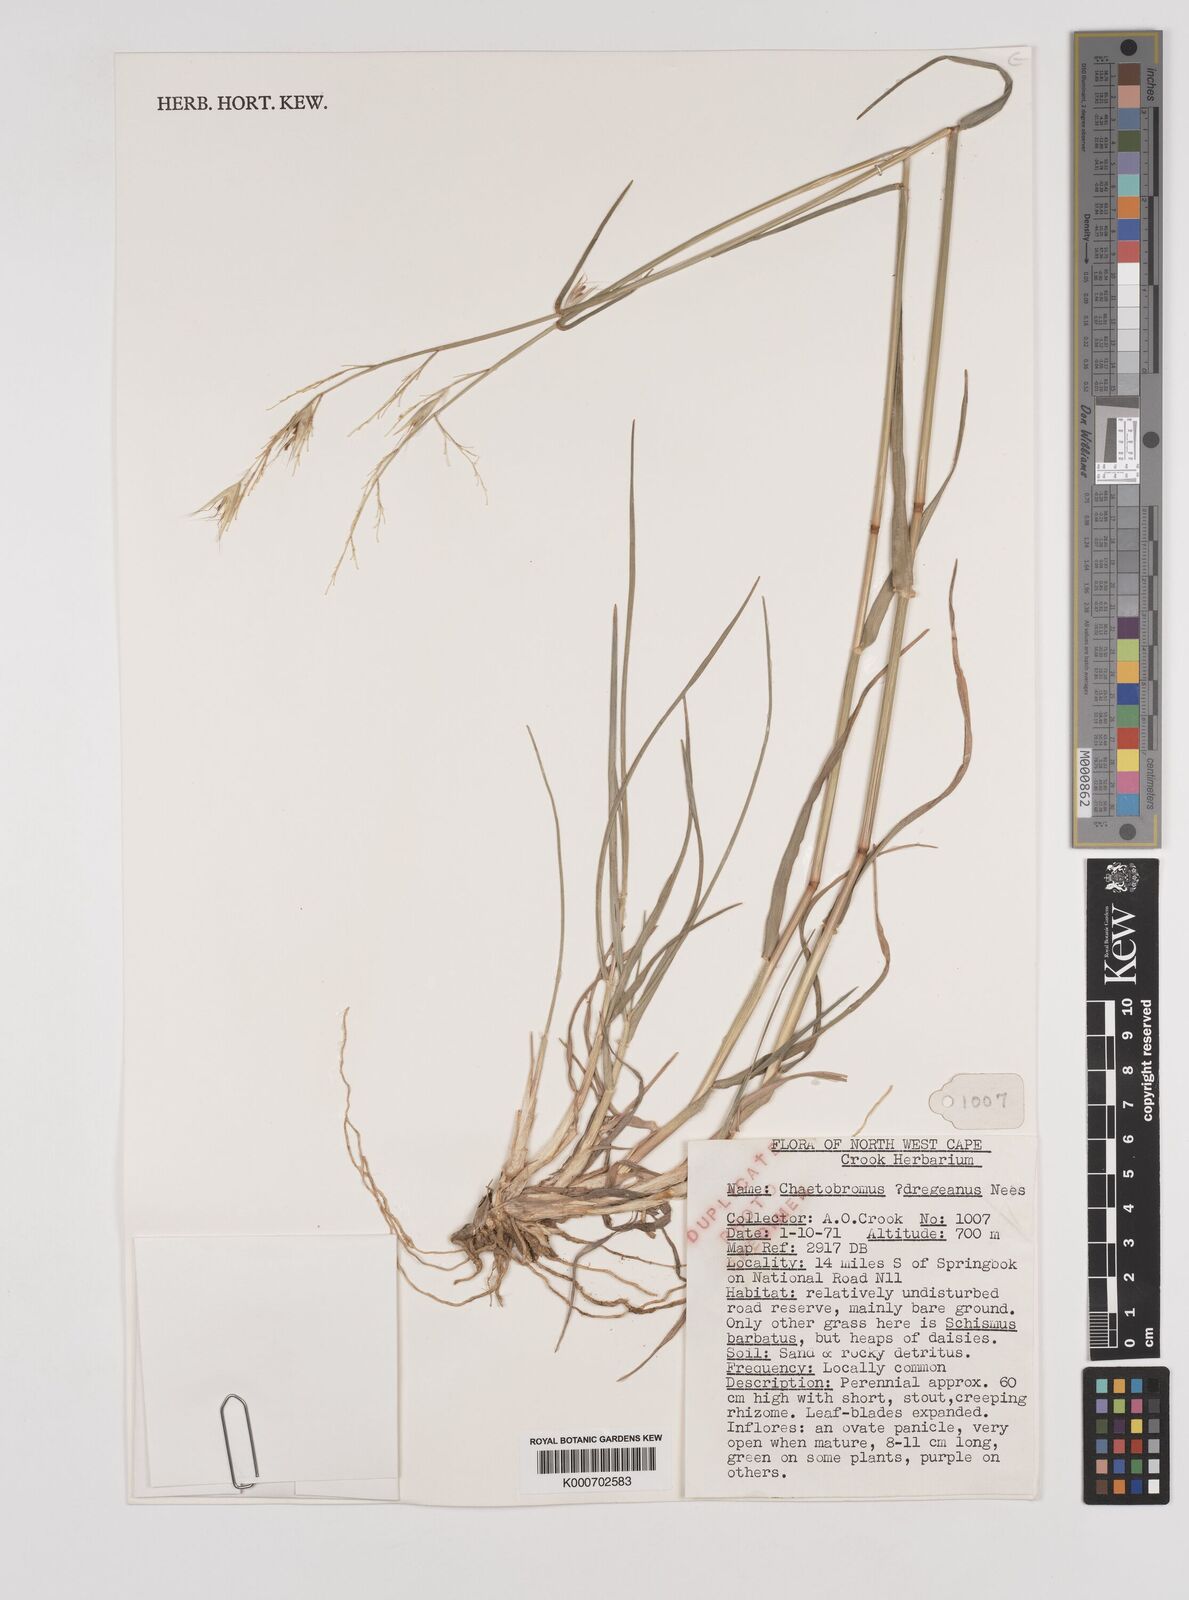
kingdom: Plantae
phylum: Tracheophyta
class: Liliopsida
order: Poales
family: Poaceae
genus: Chaetobromus
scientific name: Chaetobromus involucratus
